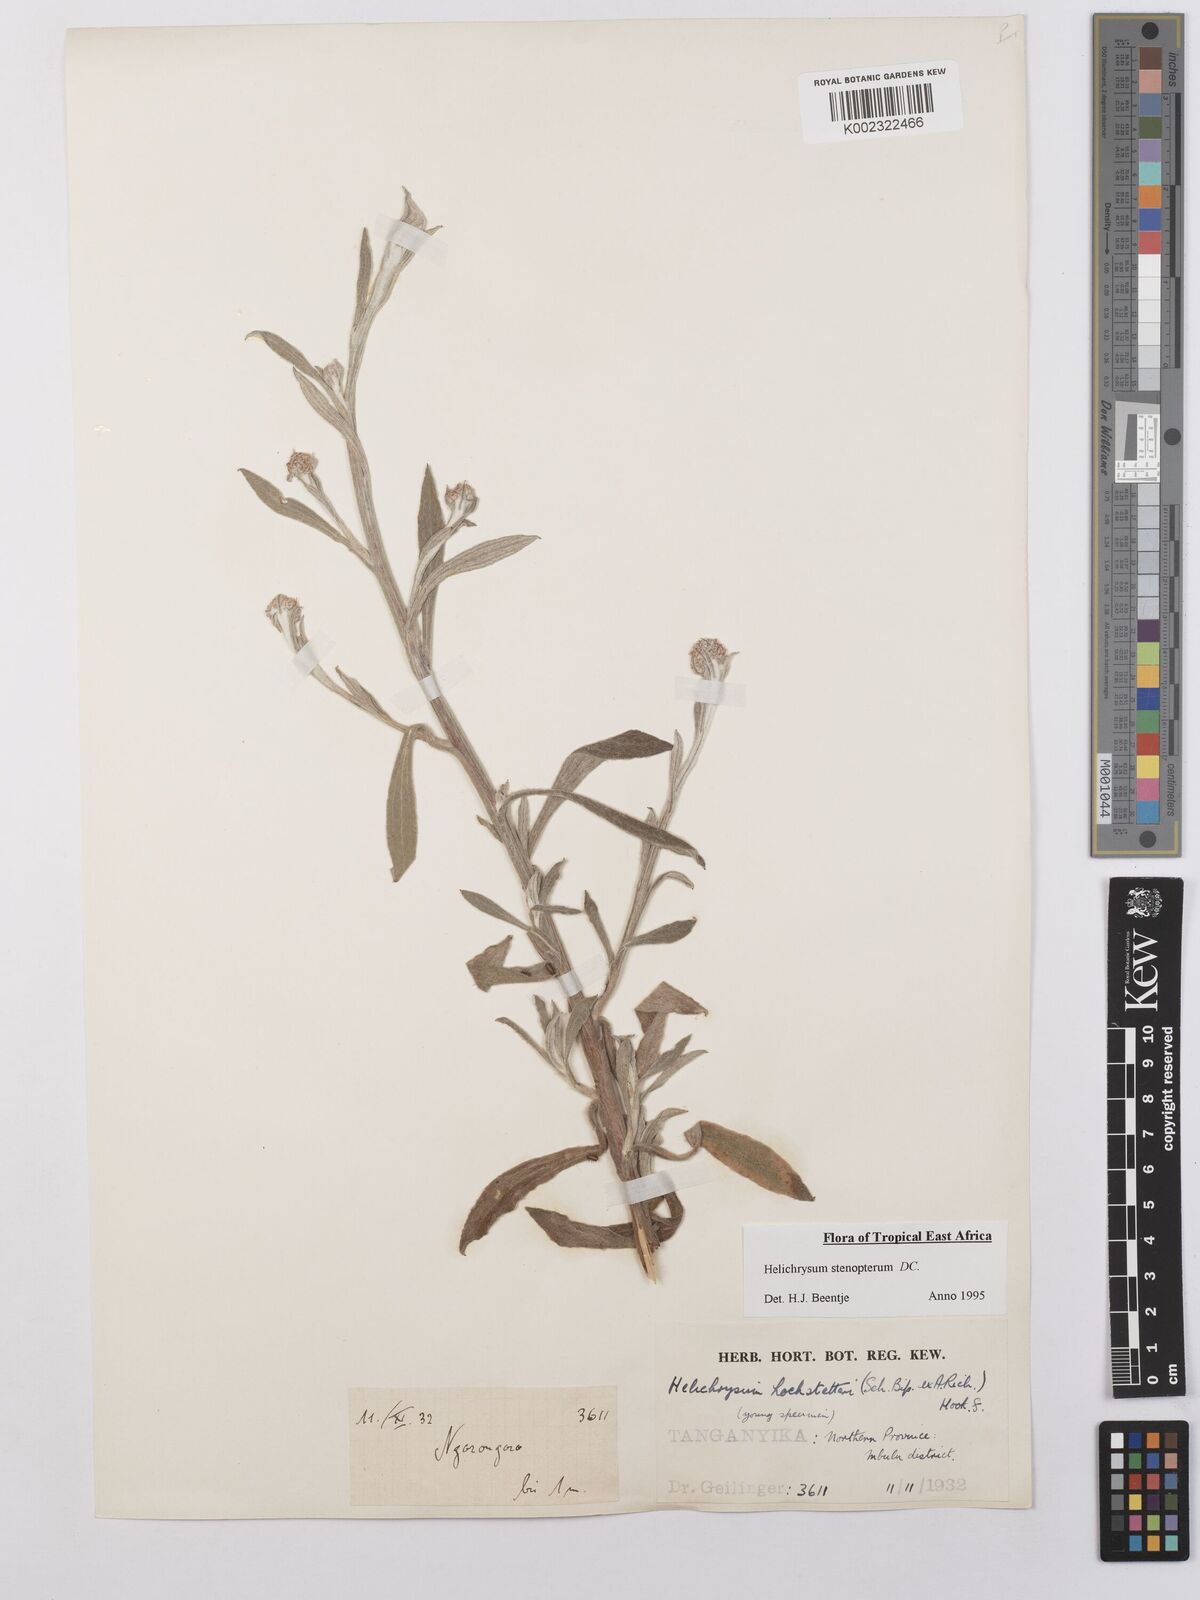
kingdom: Plantae
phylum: Tracheophyta
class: Magnoliopsida
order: Asterales
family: Asteraceae
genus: Helichrysum
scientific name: Helichrysum stenopterum
